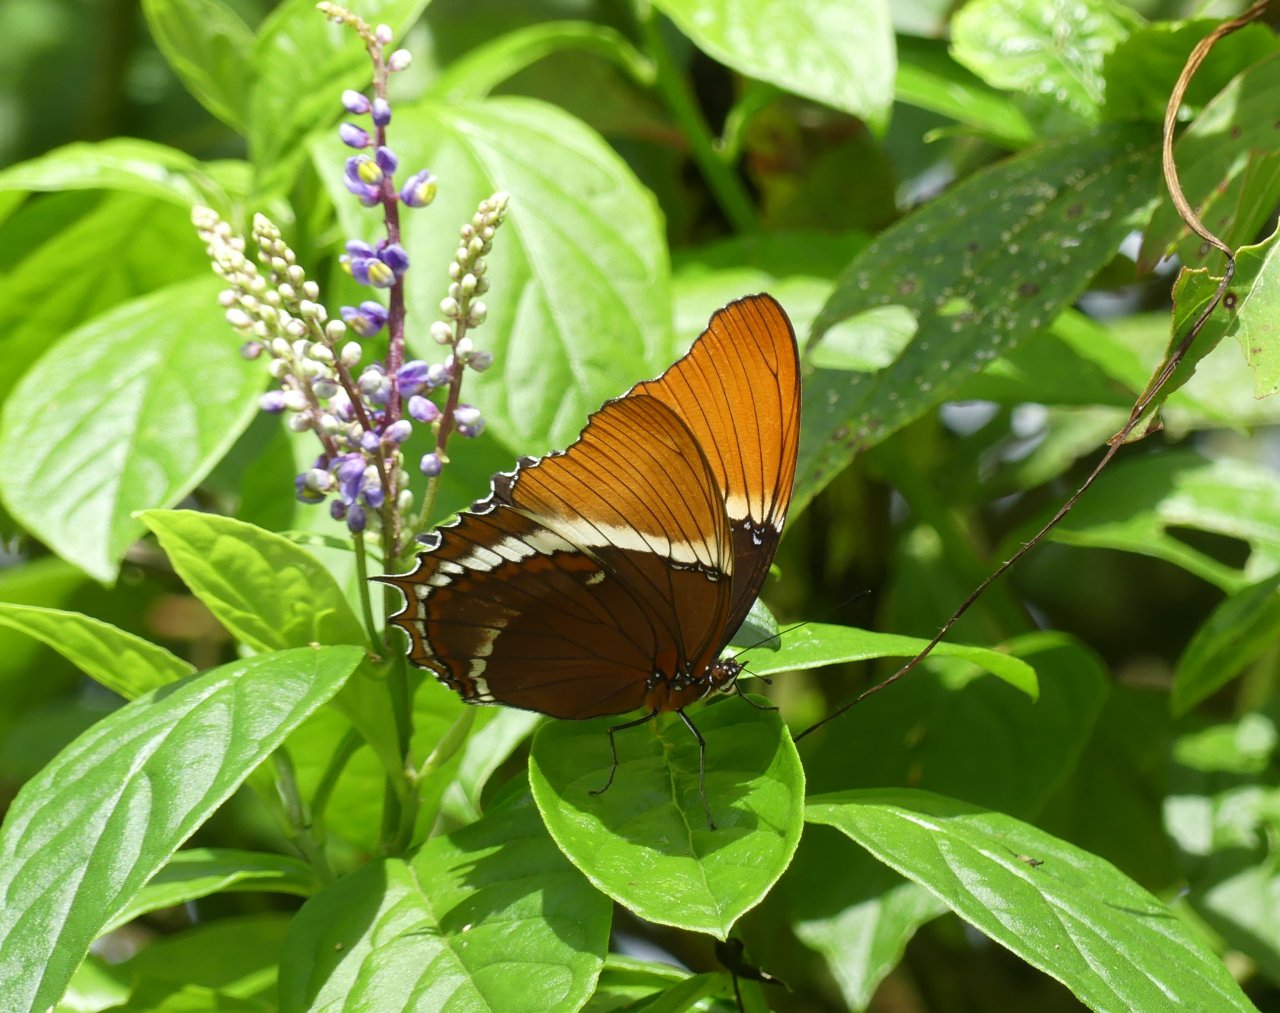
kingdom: Animalia
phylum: Arthropoda
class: Insecta
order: Lepidoptera
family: Nymphalidae
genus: Siproeta
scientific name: Siproeta epaphus
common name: Rusty-tipped Page
